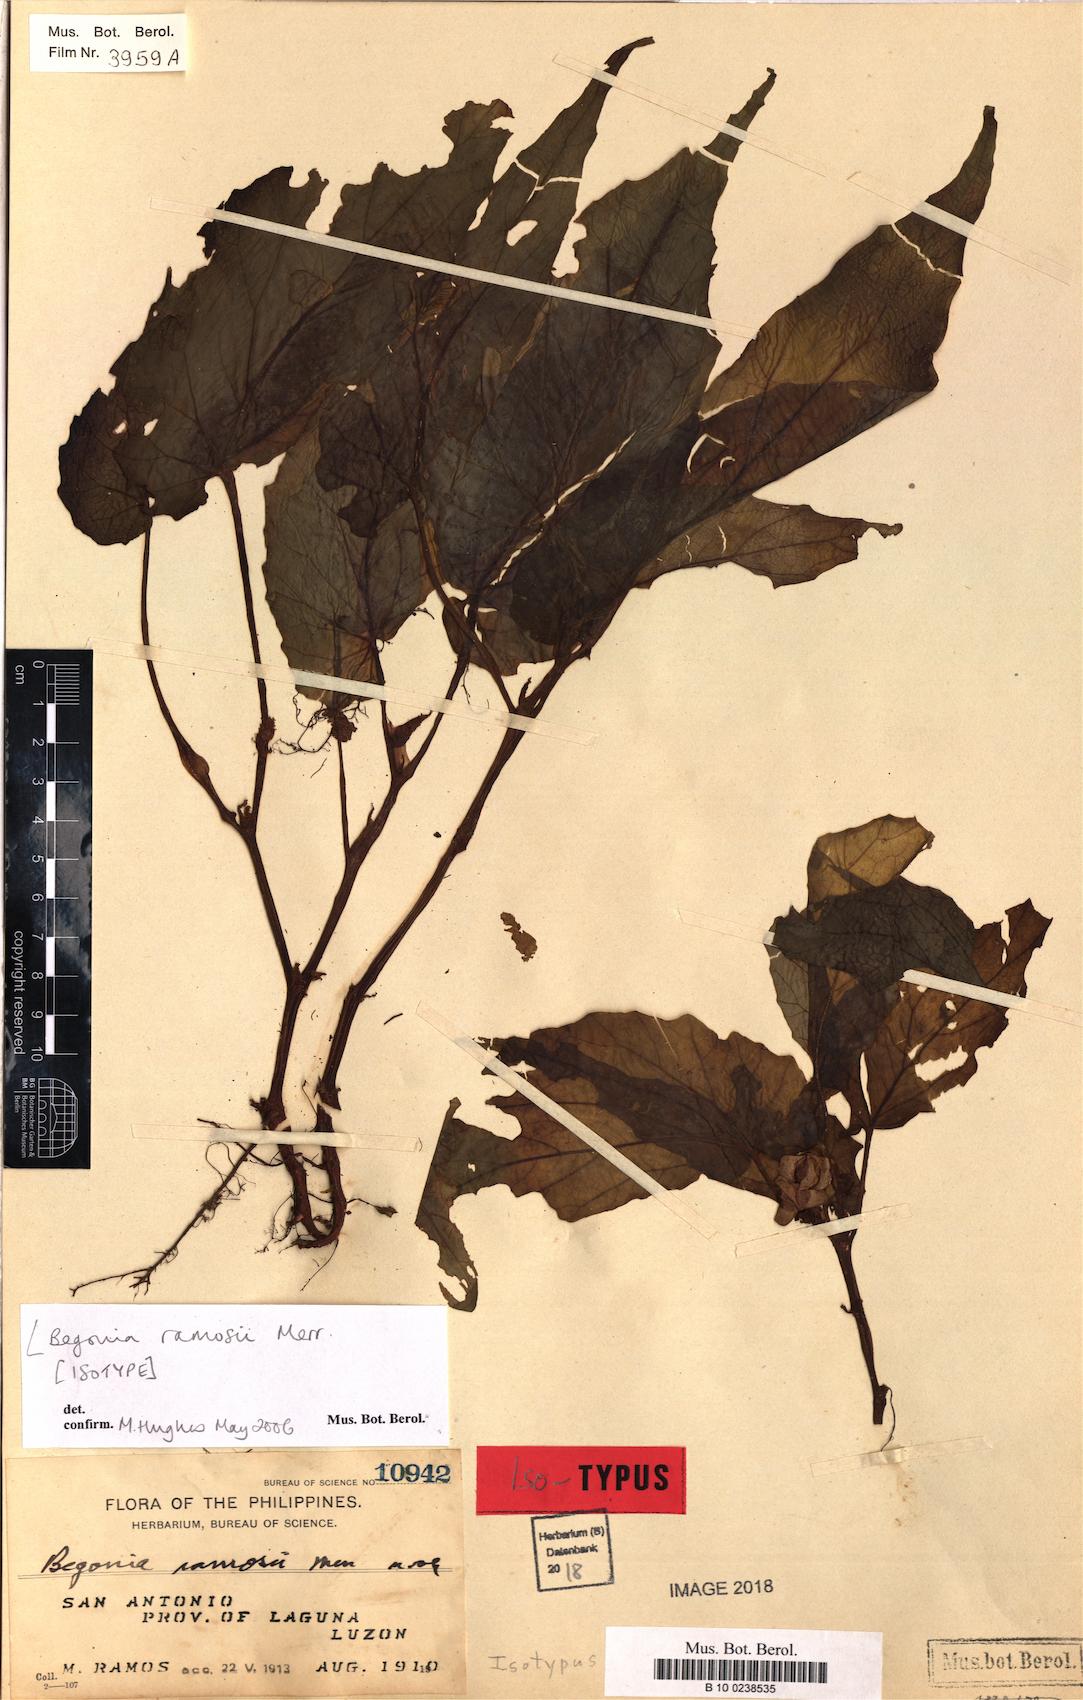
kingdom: Plantae
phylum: Tracheophyta
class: Magnoliopsida
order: Cucurbitales
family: Begoniaceae
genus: Begonia
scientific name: Begonia ramosii
